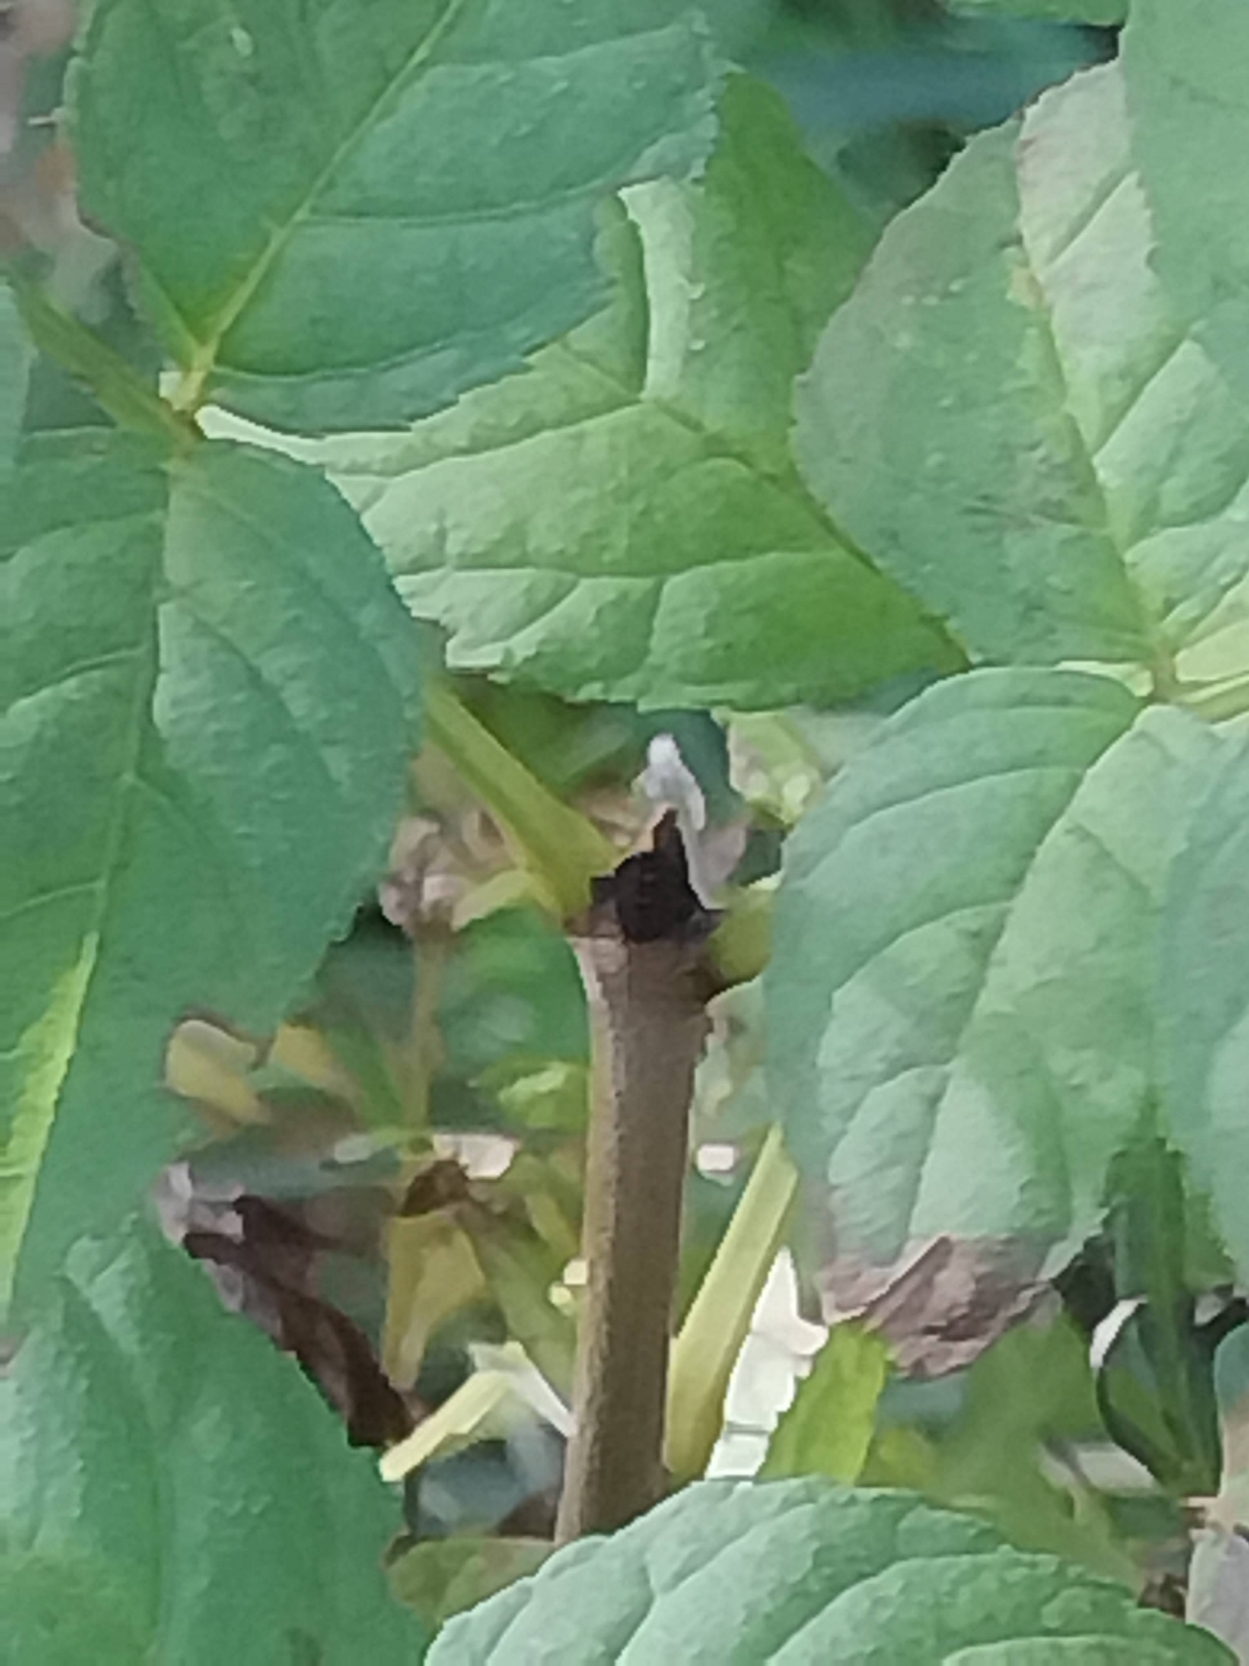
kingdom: Plantae
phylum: Tracheophyta
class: Magnoliopsida
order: Lamiales
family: Oleaceae
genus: Fraxinus
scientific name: Fraxinus excelsior
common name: Ask
